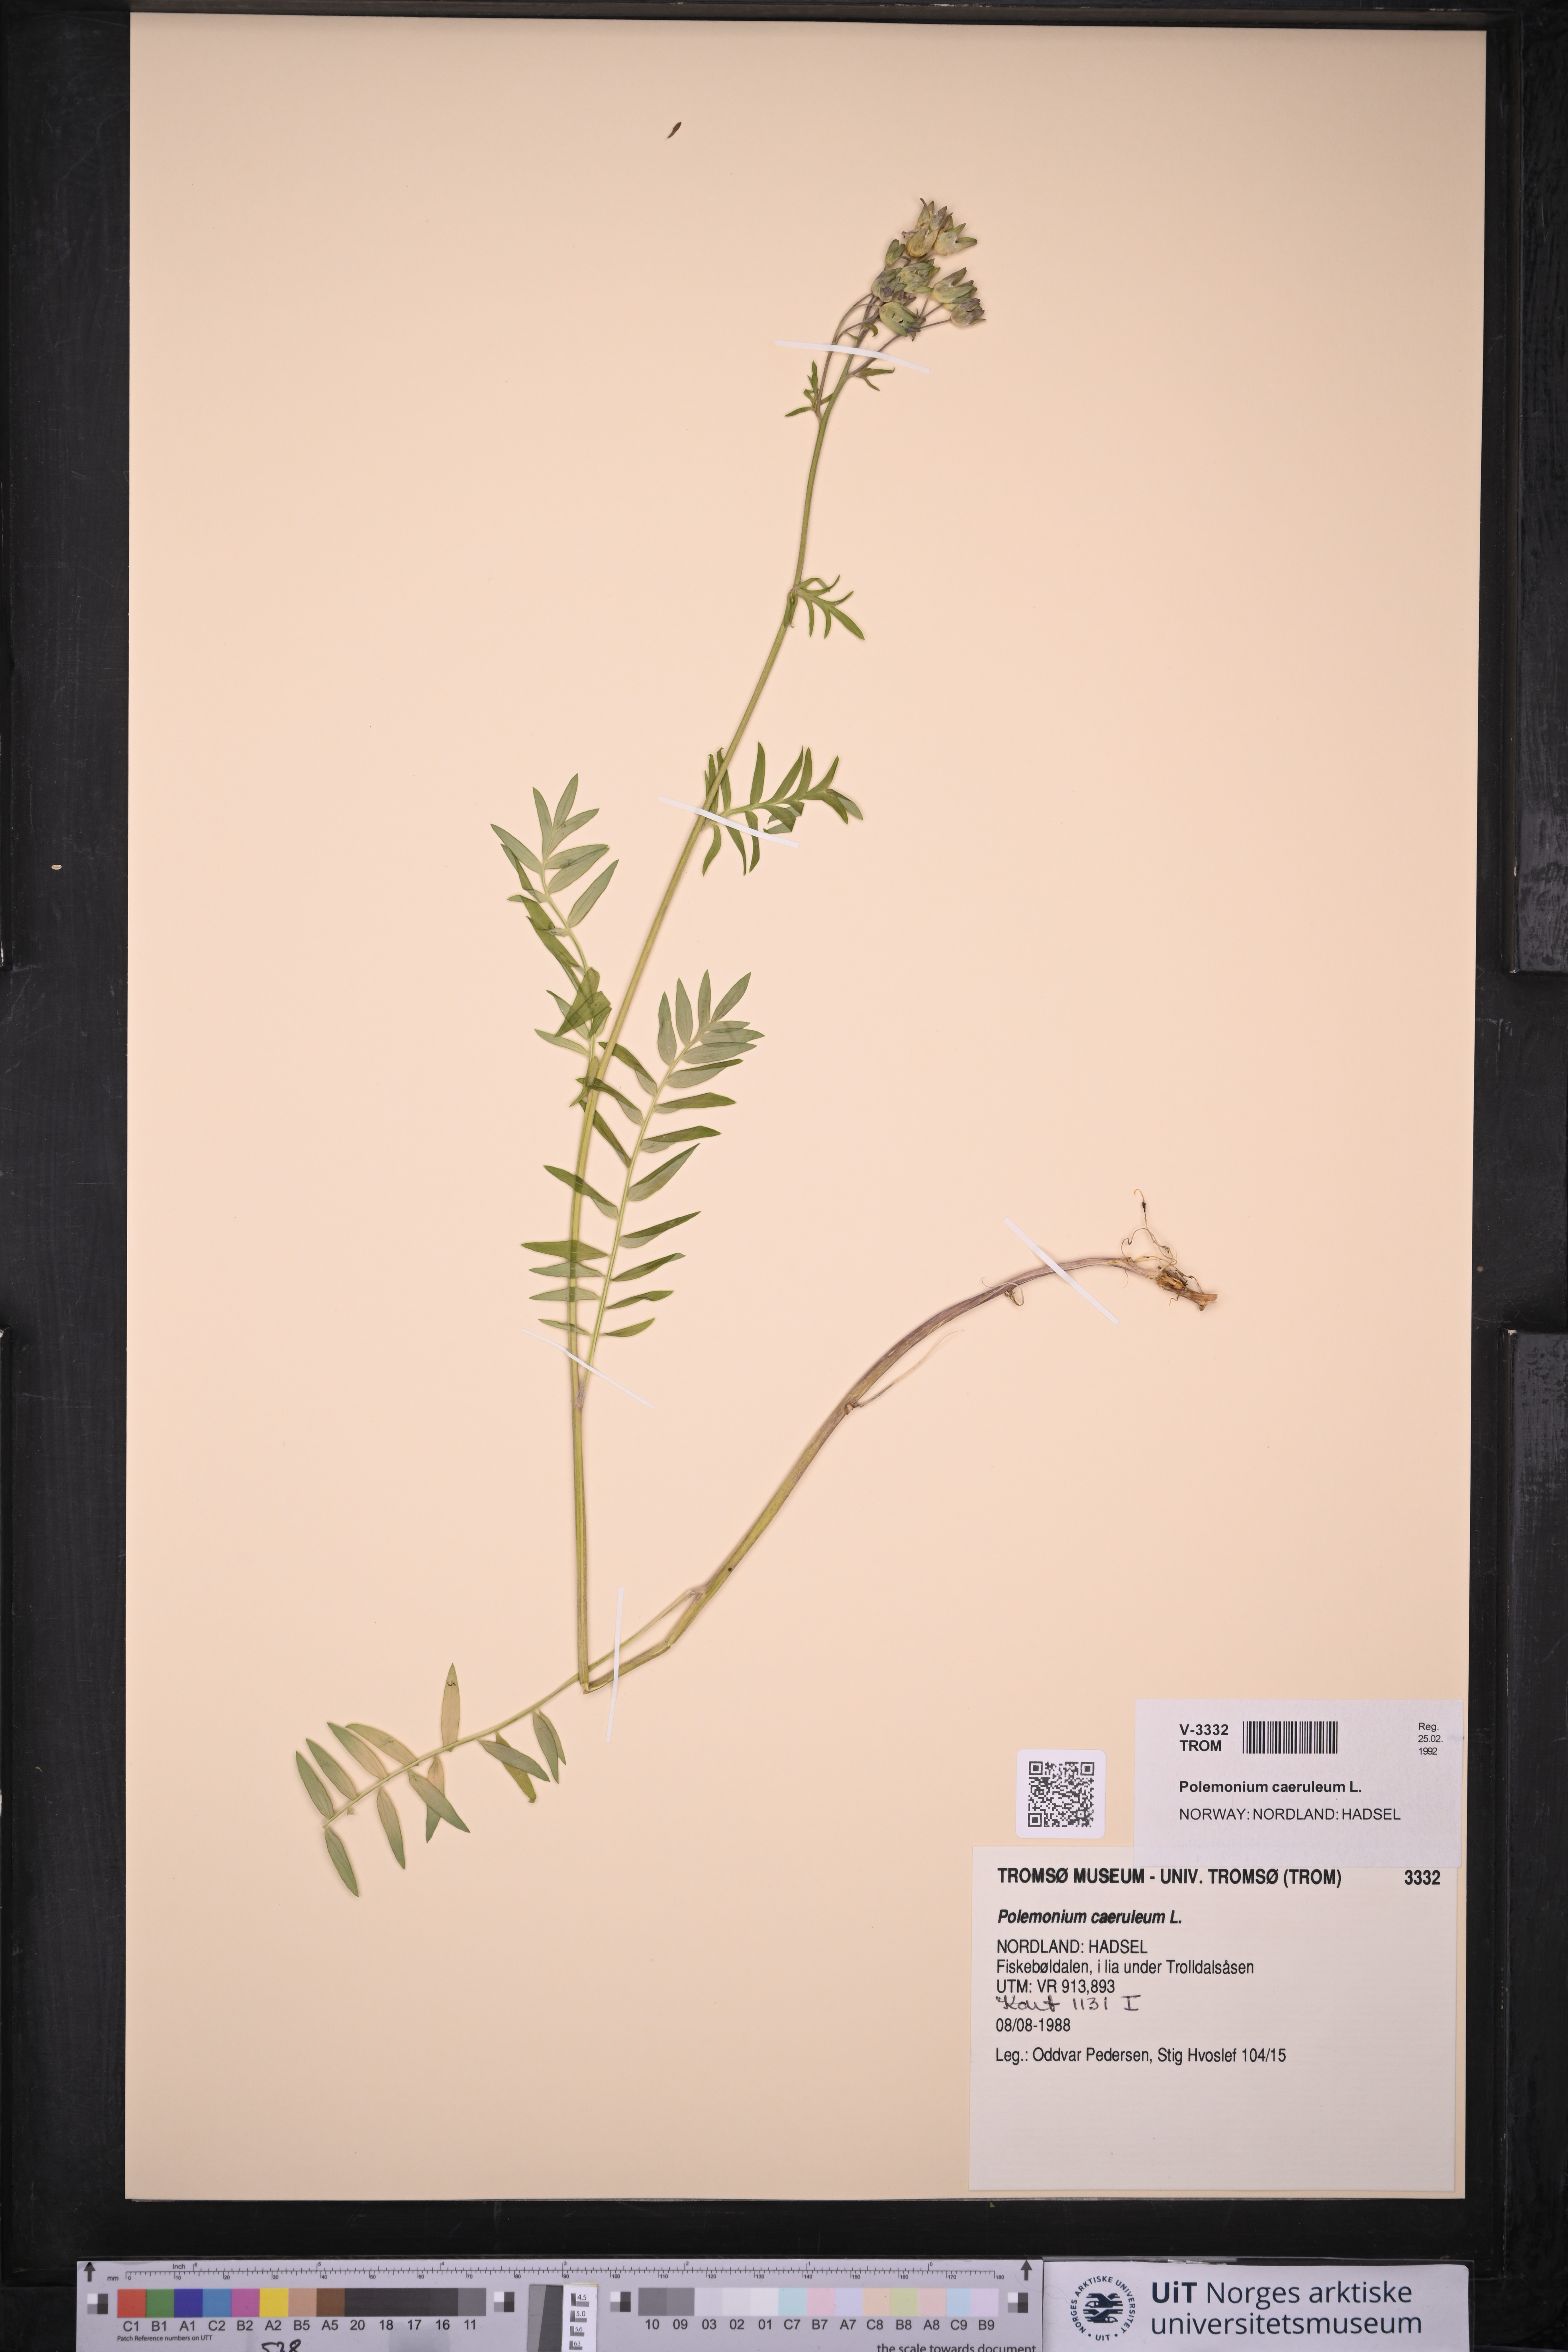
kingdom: Plantae
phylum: Tracheophyta
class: Magnoliopsida
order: Ericales
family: Polemoniaceae
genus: Polemonium
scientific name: Polemonium caeruleum
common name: Jacob's-ladder
